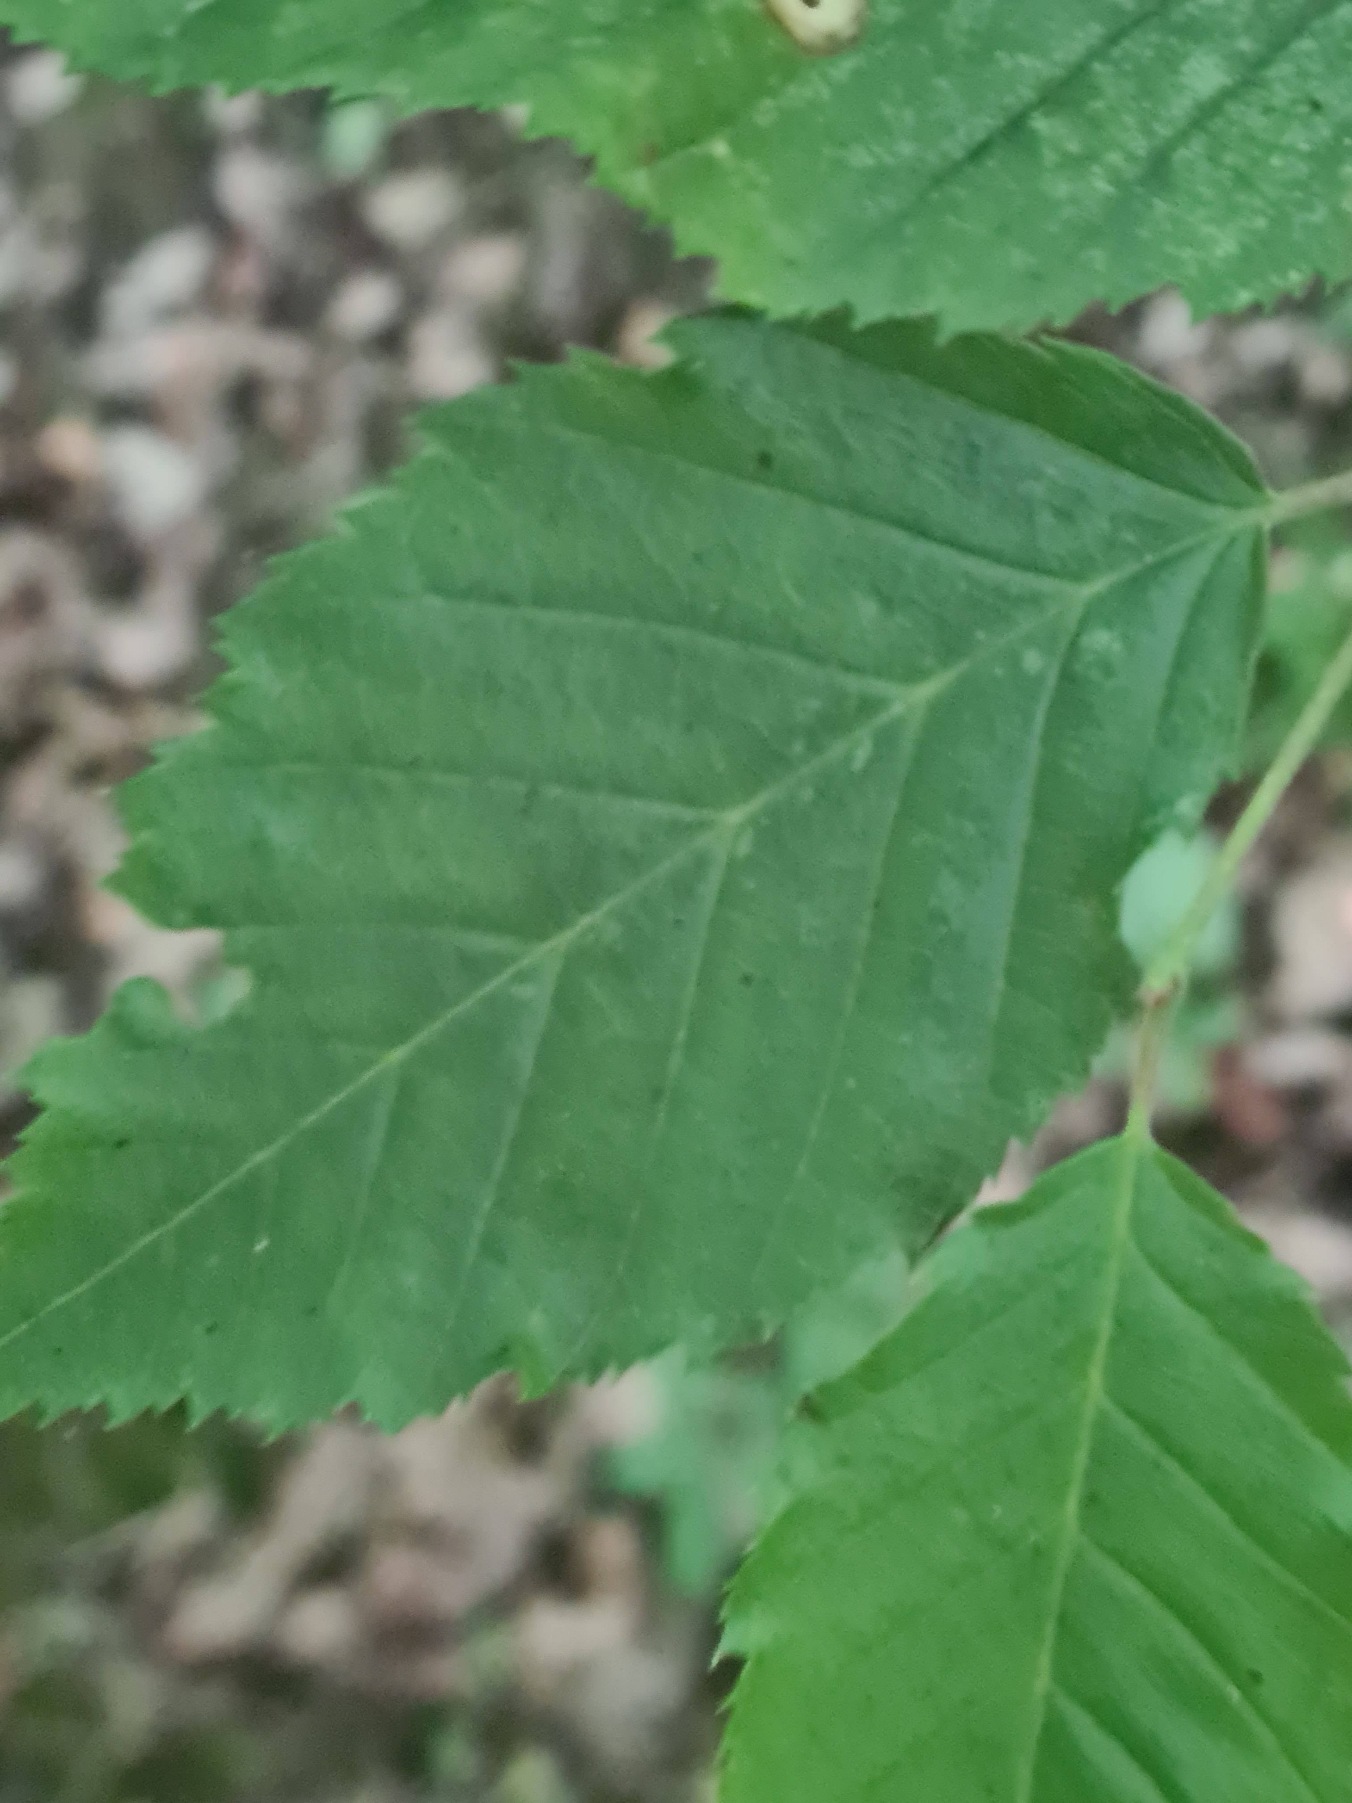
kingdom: Plantae
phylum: Tracheophyta
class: Magnoliopsida
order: Fagales
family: Betulaceae
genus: Carpinus
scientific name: Carpinus betulus
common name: Avnbøg
